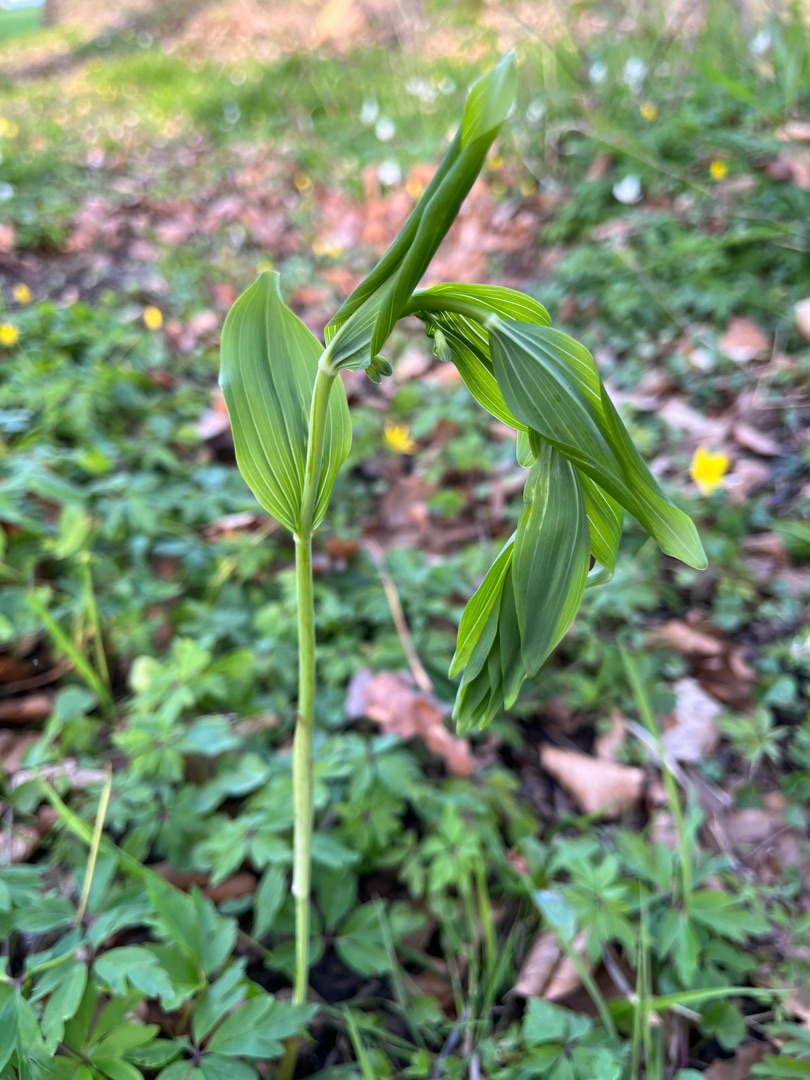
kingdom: Plantae
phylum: Tracheophyta
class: Liliopsida
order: Asparagales
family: Asparagaceae
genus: Polygonatum
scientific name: Polygonatum
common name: Hybrid-konval
